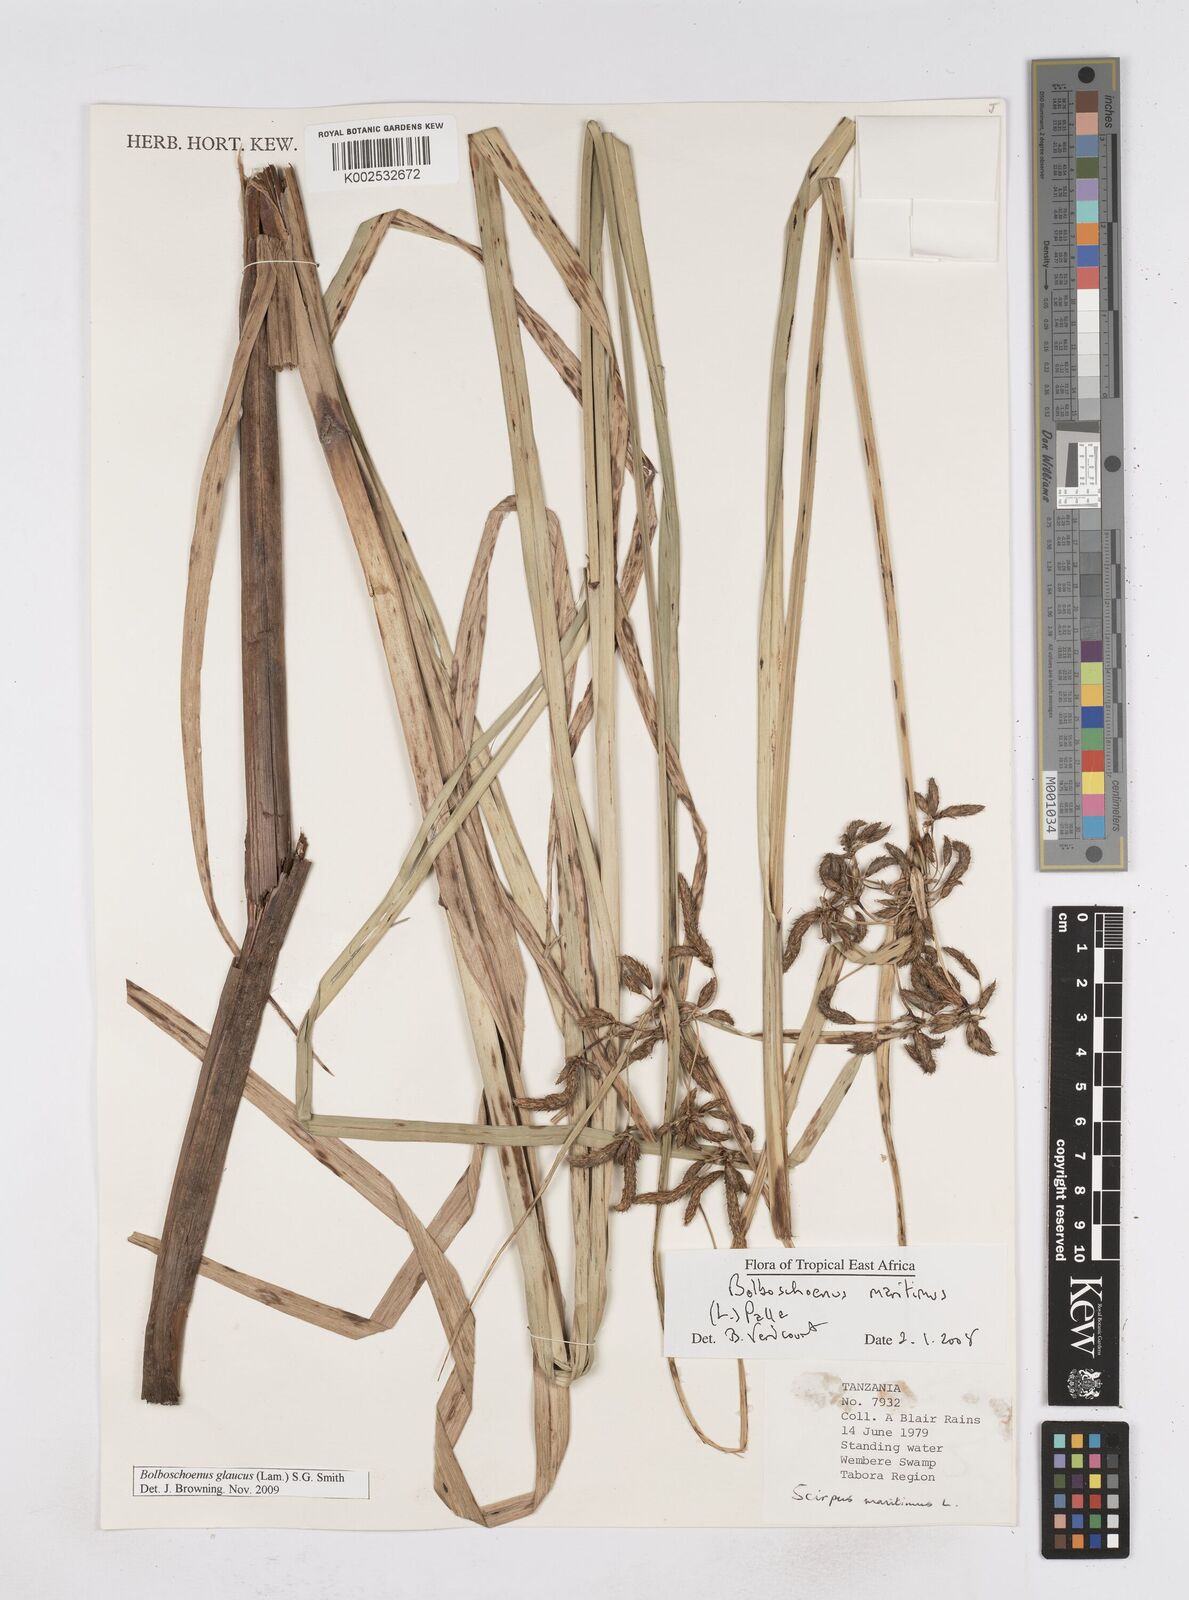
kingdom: Plantae
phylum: Tracheophyta
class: Liliopsida
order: Poales
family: Cyperaceae
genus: Bolboschoenus
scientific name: Bolboschoenus glaucus
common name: Tuberous bulrush
